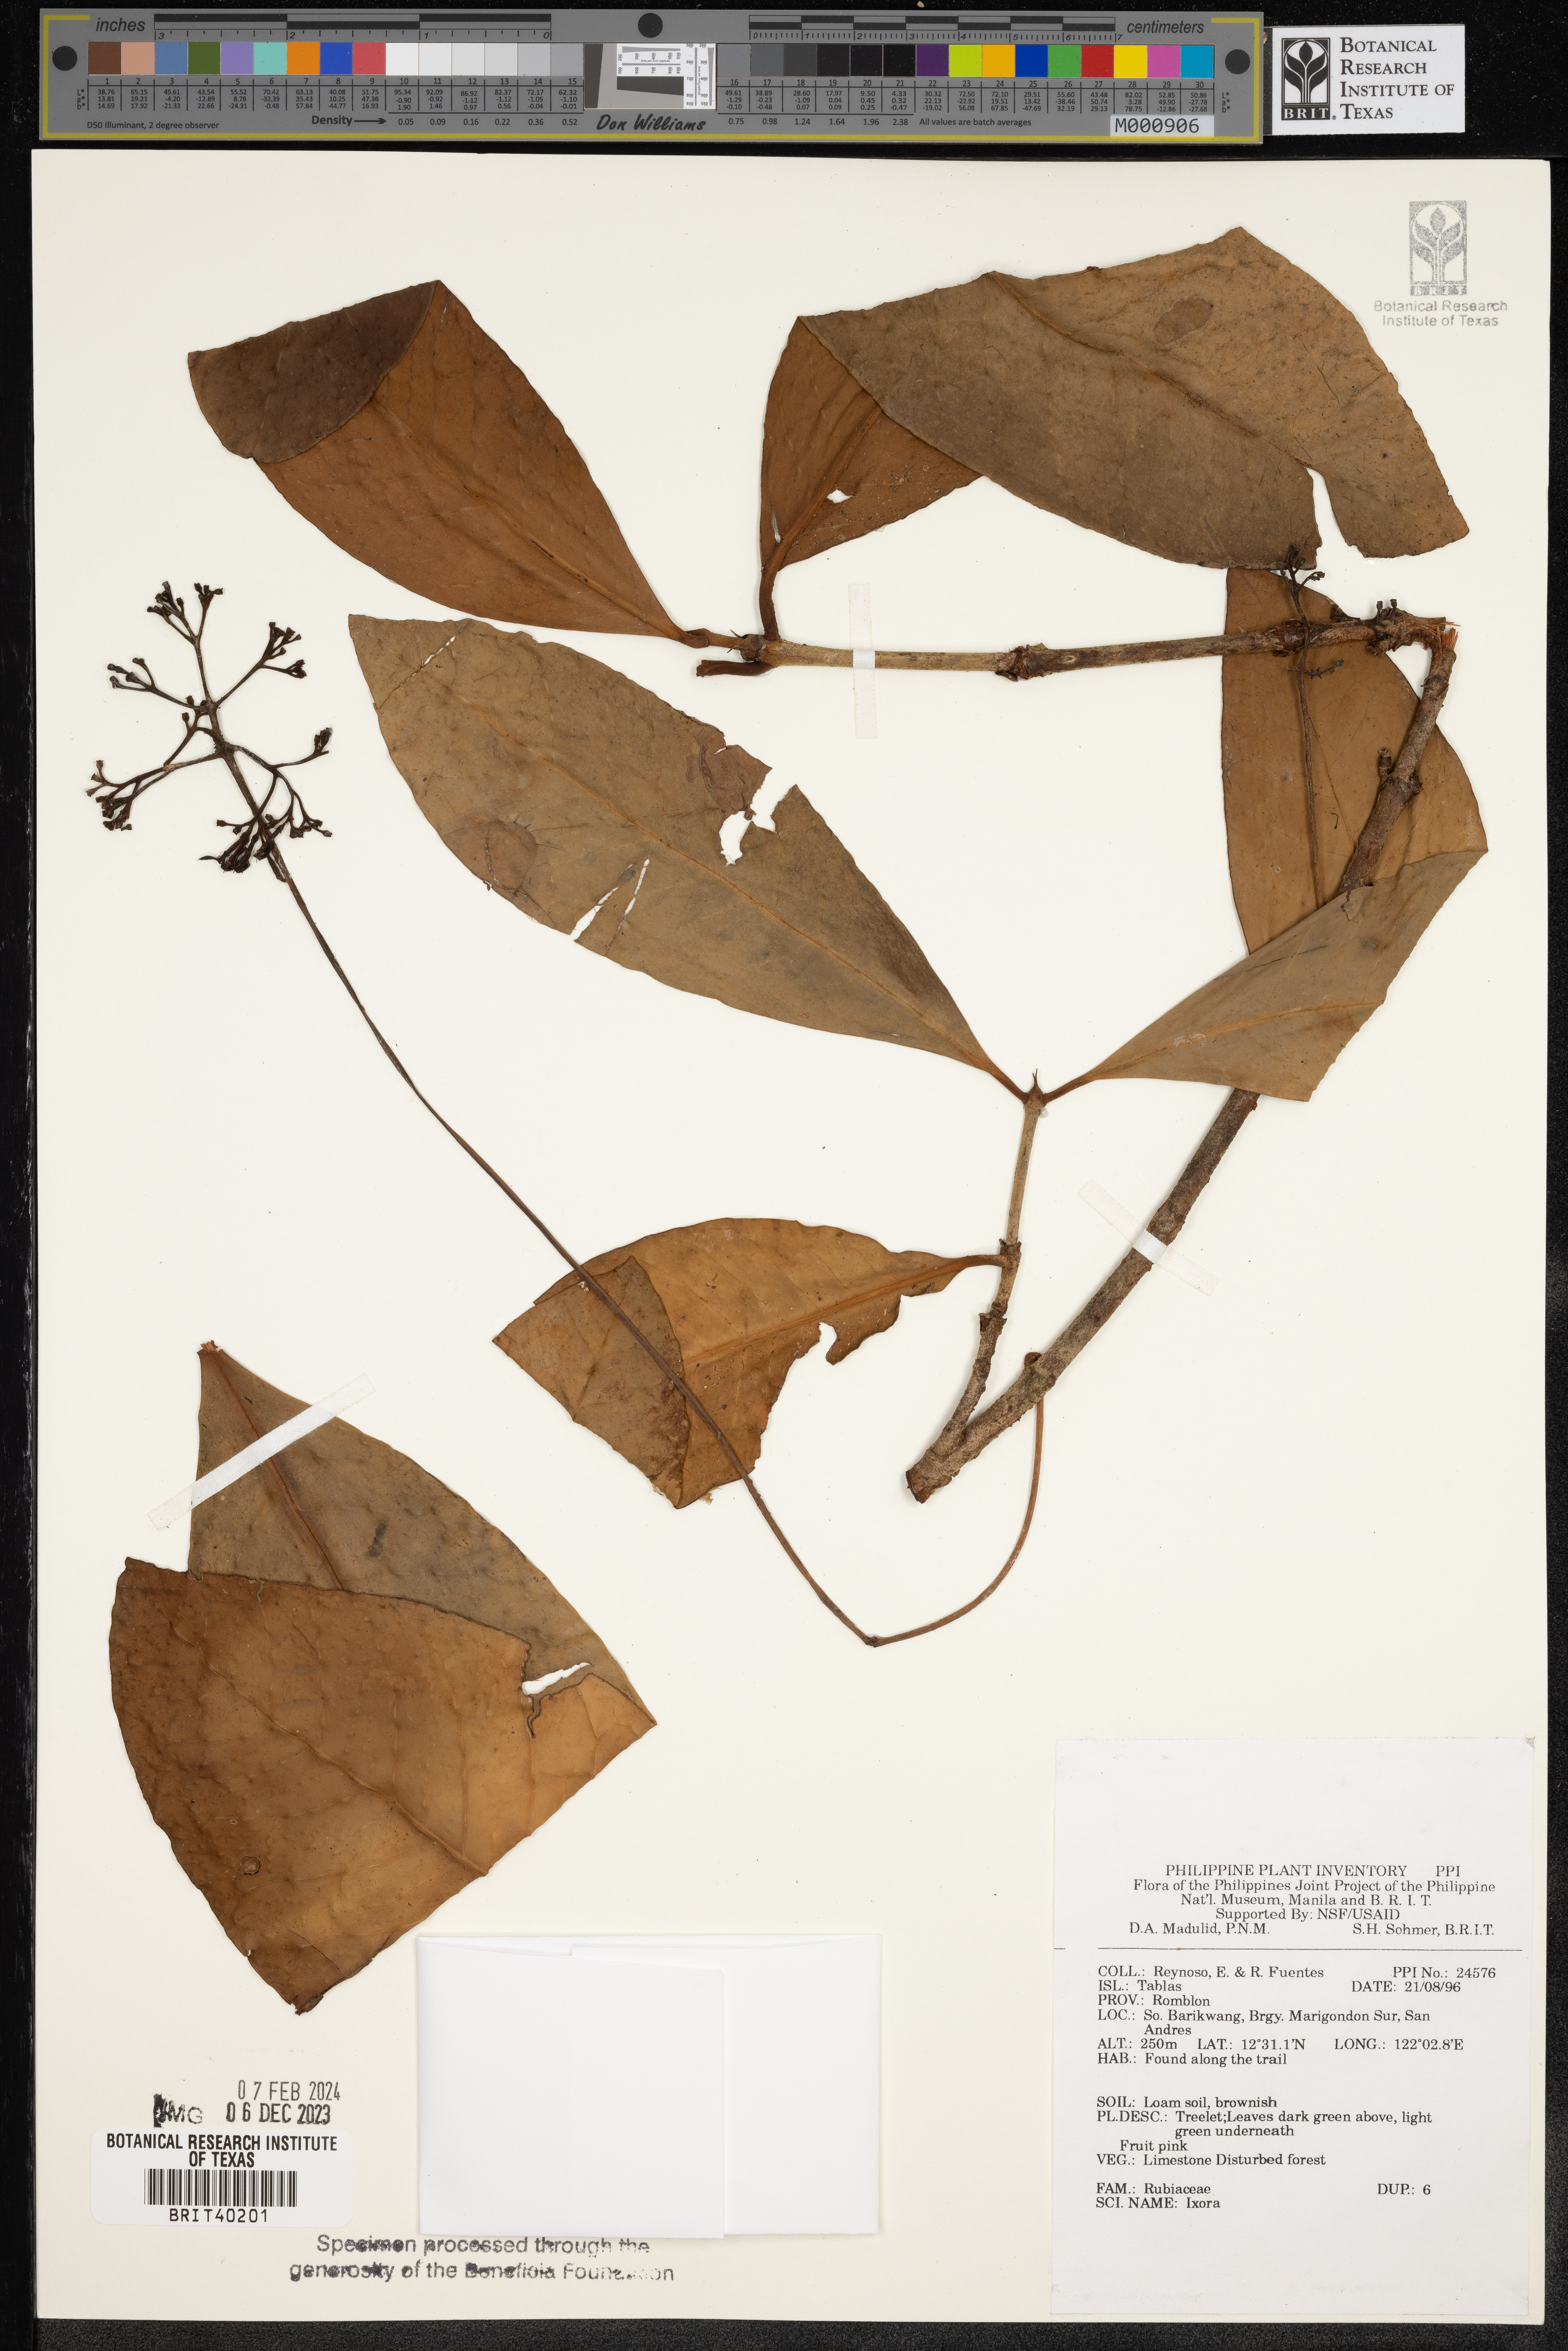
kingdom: Plantae
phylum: Tracheophyta
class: Magnoliopsida
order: Gentianales
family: Rubiaceae
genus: Ixora
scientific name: Ixora
